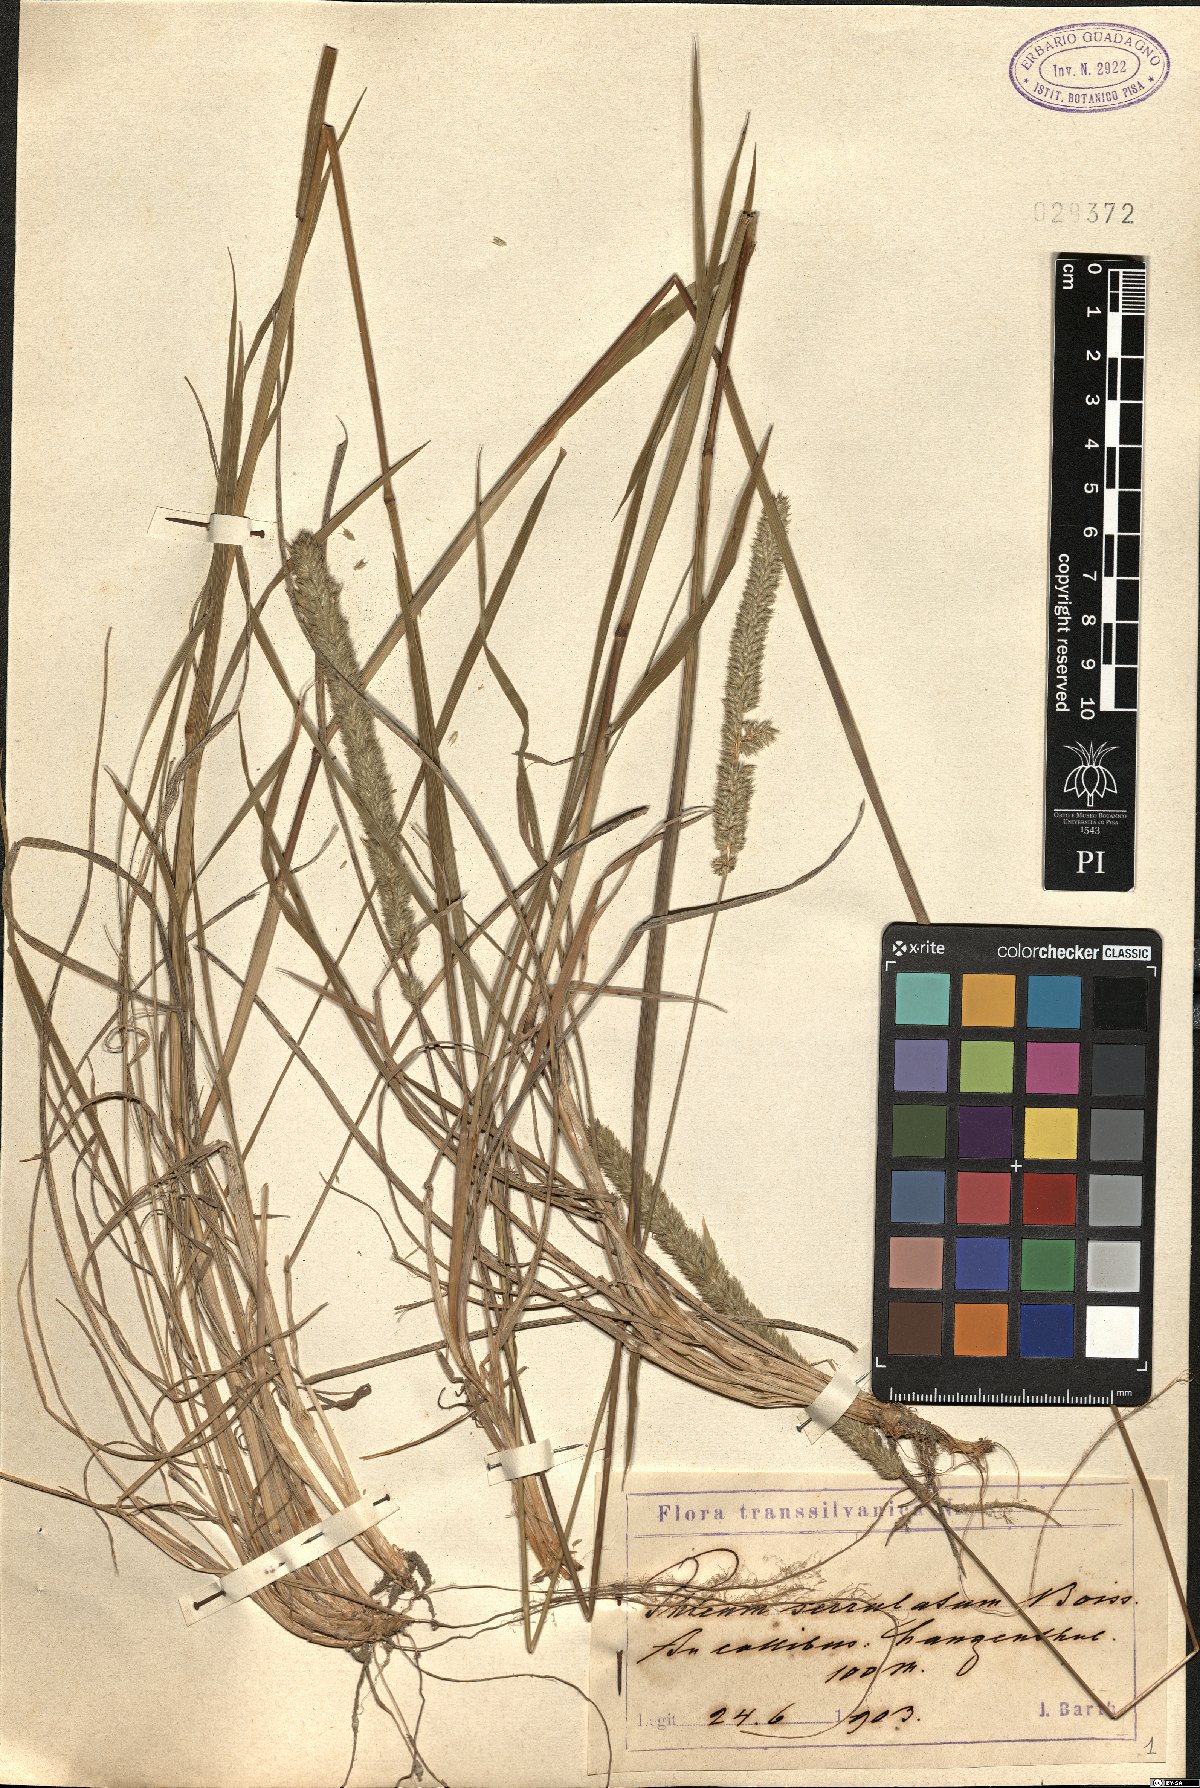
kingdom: Plantae
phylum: Tracheophyta
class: Liliopsida
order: Poales
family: Poaceae
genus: Phleum
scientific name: Phleum montanum
